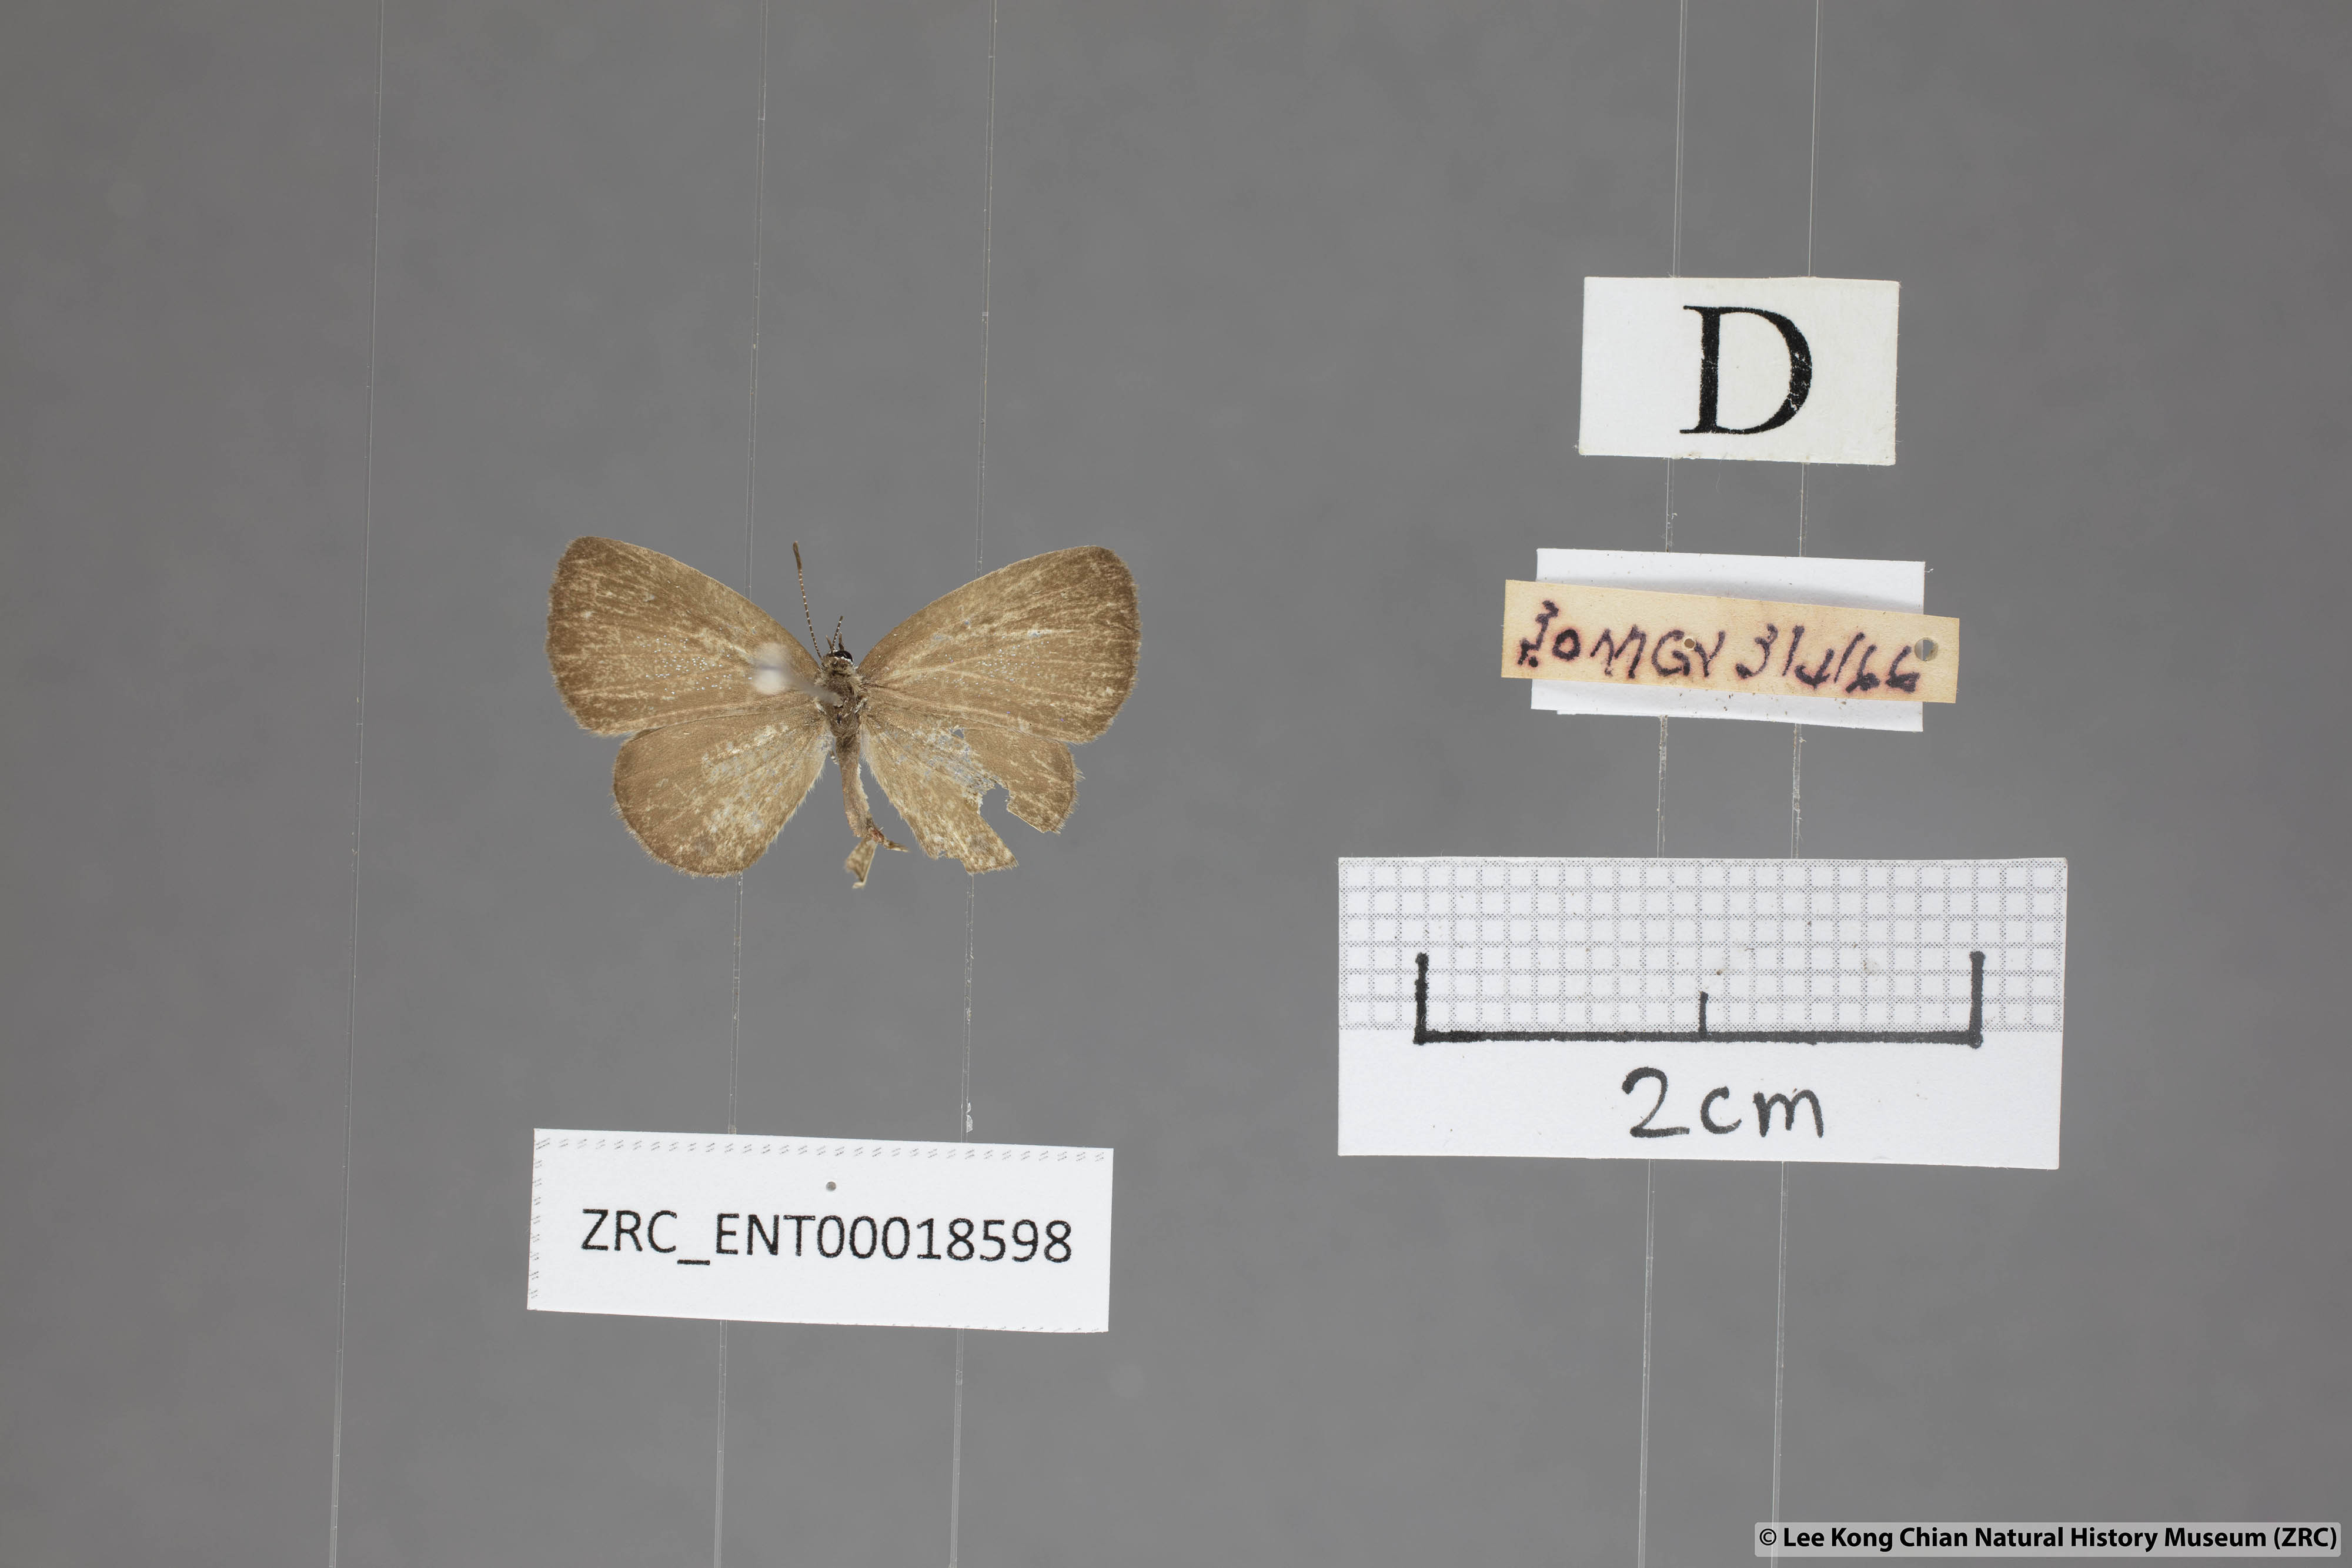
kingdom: Animalia
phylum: Arthropoda
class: Insecta
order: Lepidoptera
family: Lycaenidae
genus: Prosotas
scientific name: Prosotas lutea
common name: Brown lineblue
